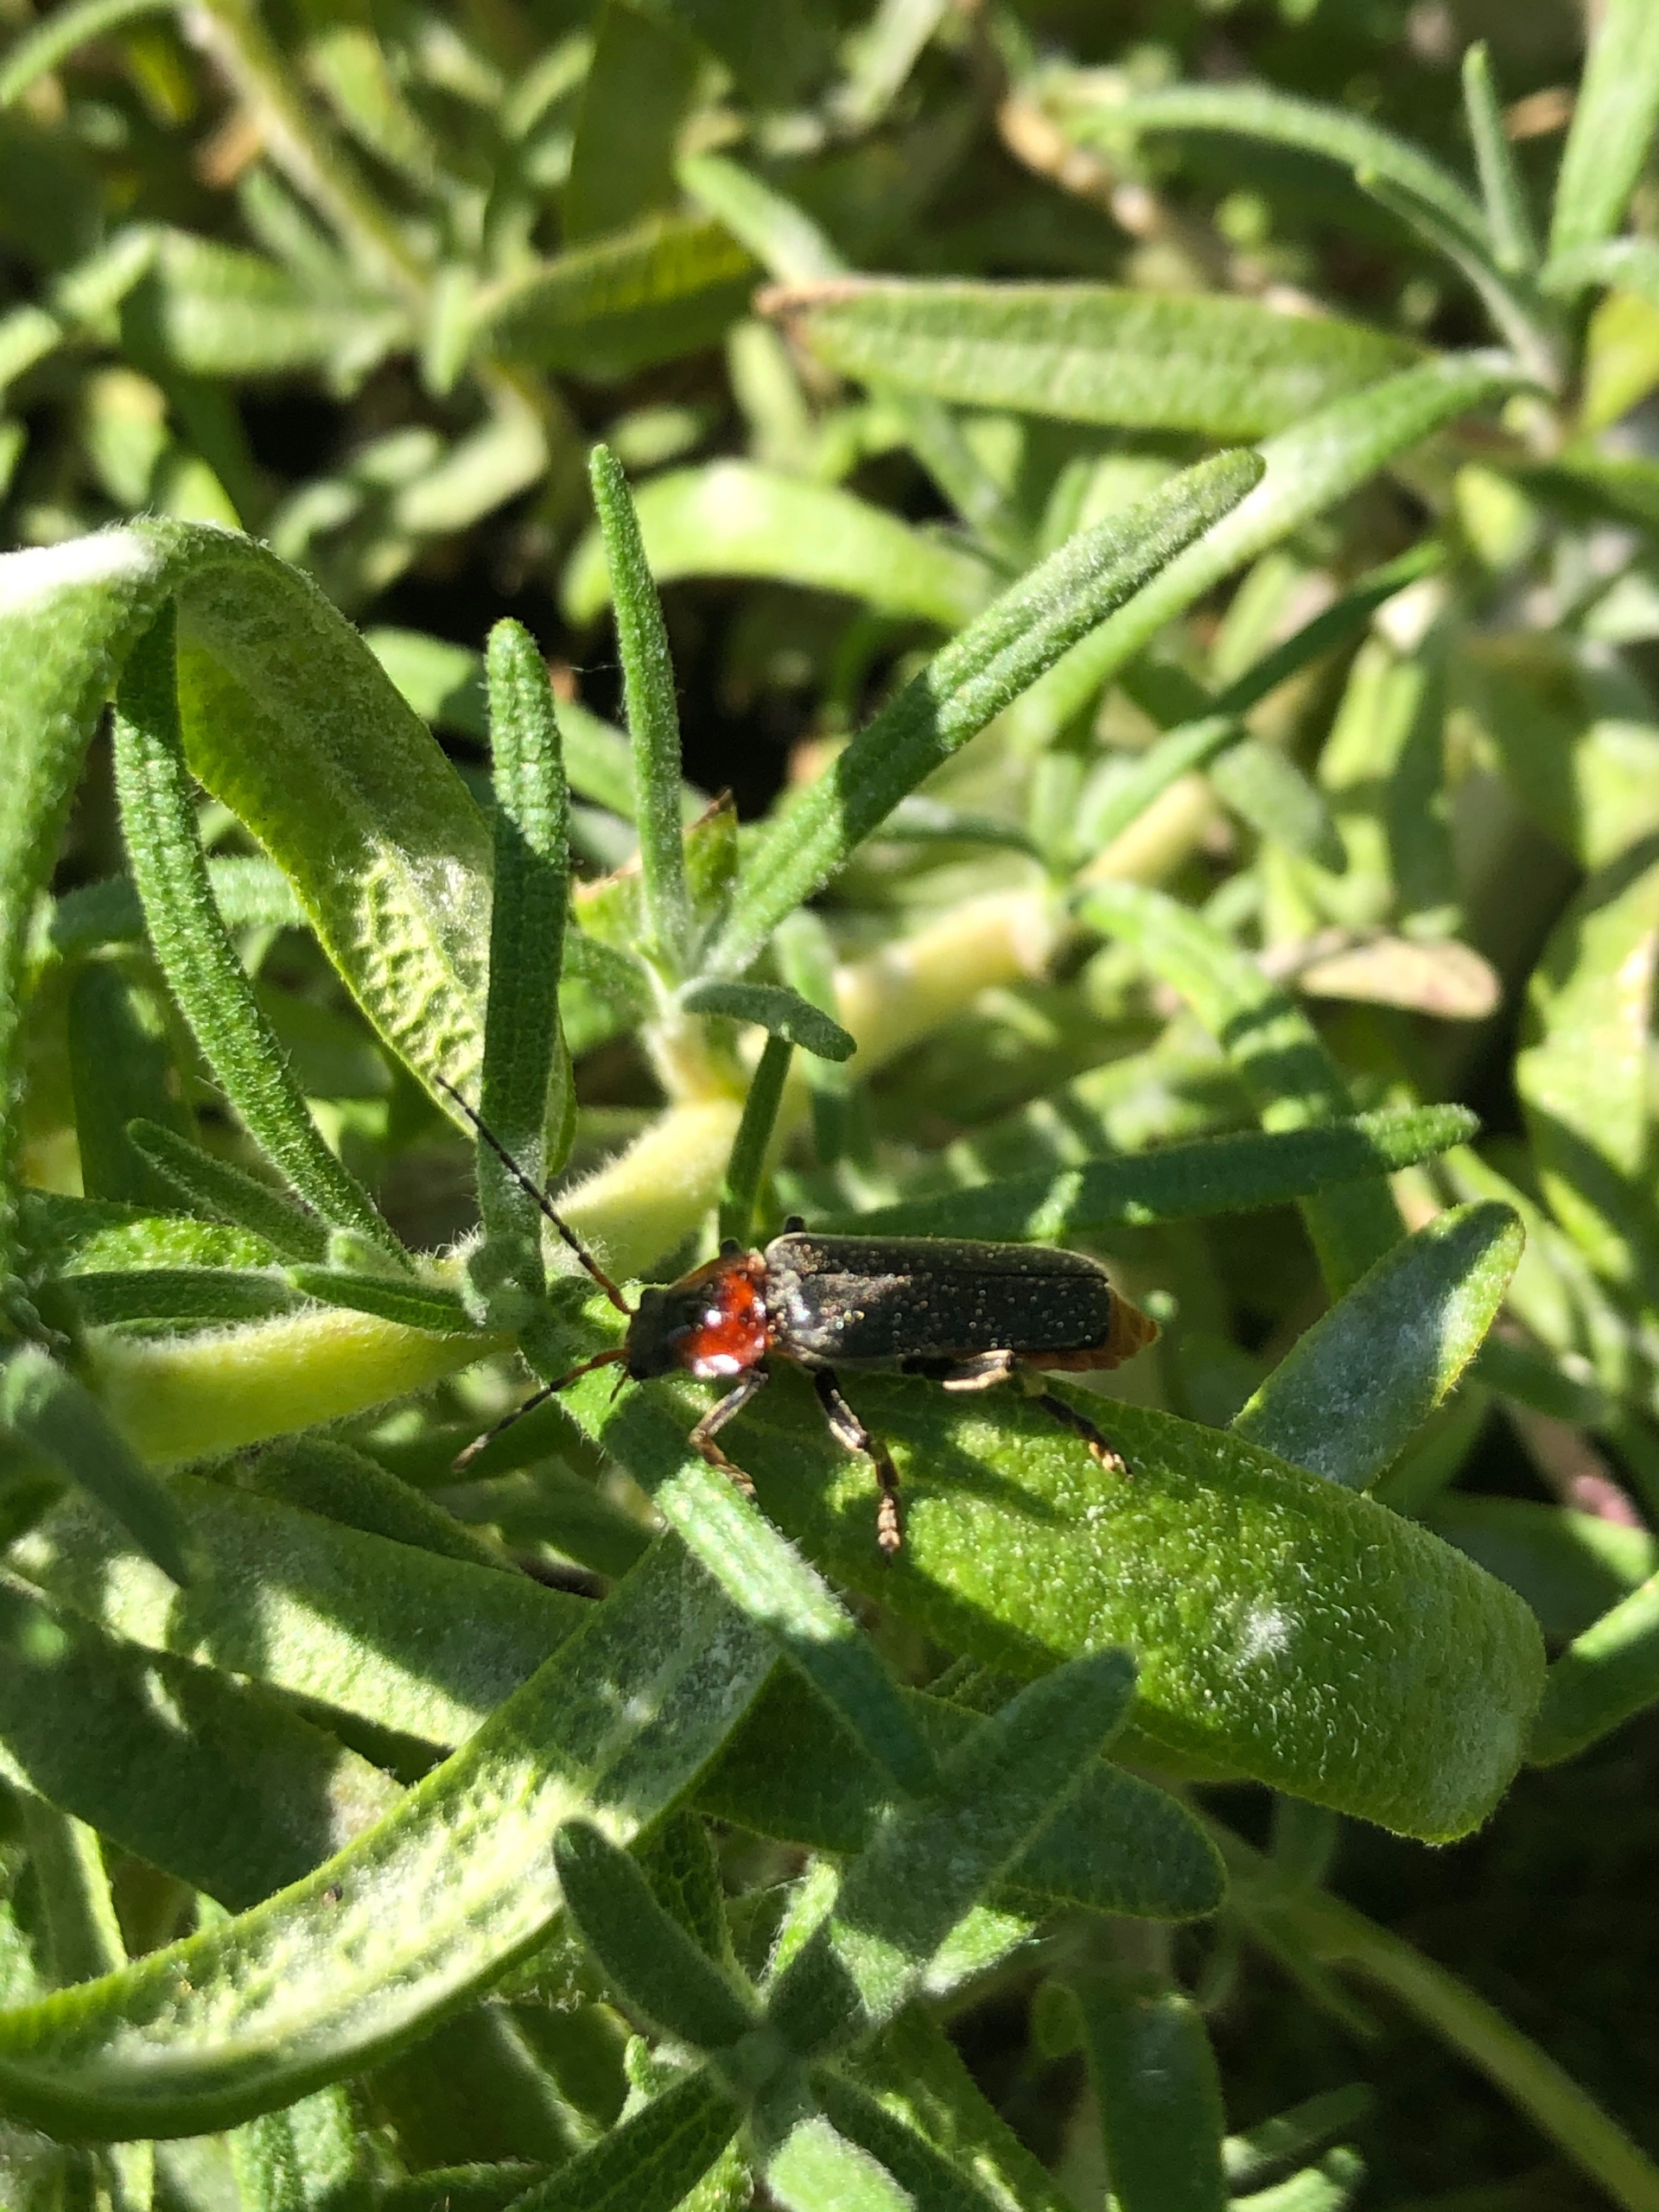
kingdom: Animalia
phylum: Arthropoda
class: Insecta
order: Coleoptera
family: Cantharidae
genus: Cantharis
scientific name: Cantharis fusca
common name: Stor blødvinge
